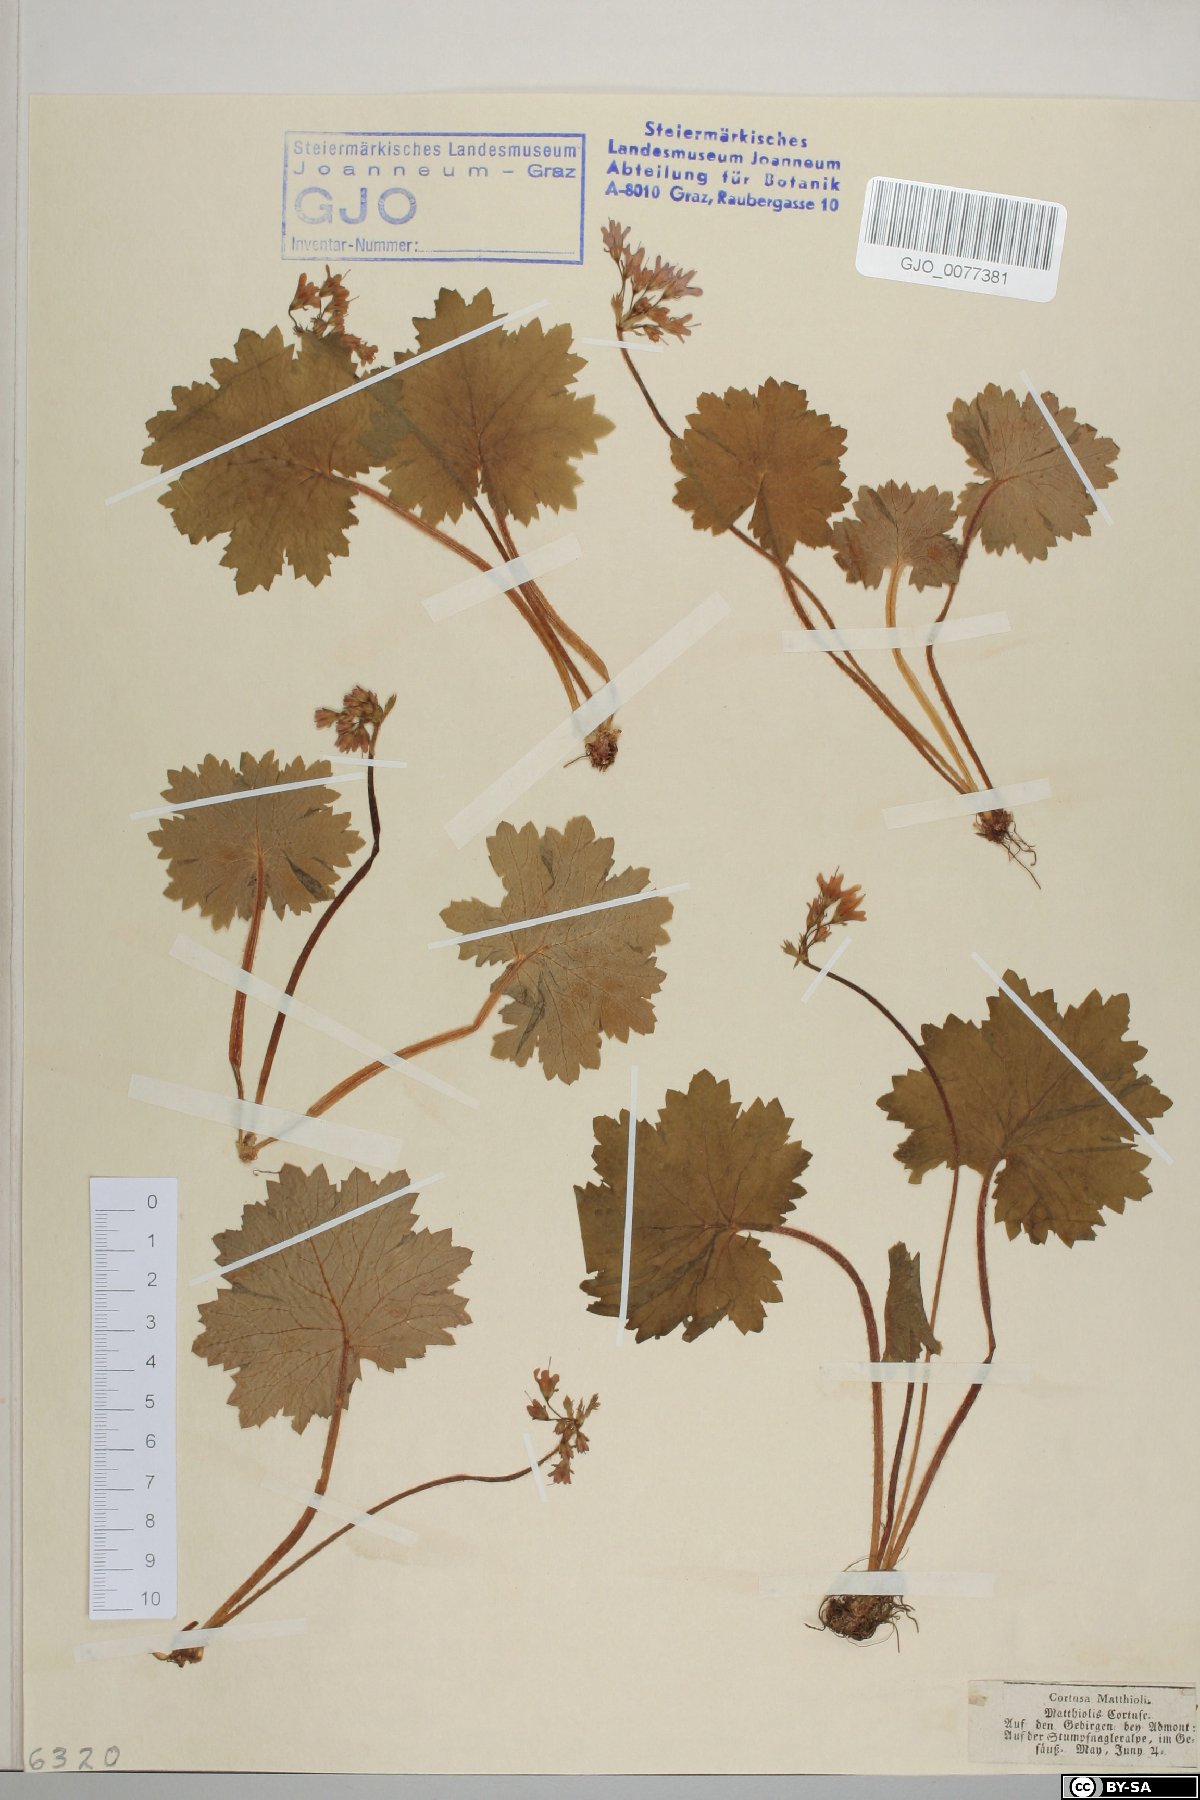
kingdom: Plantae
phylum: Tracheophyta
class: Magnoliopsida
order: Ericales
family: Primulaceae
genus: Primula
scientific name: Primula matthioli
